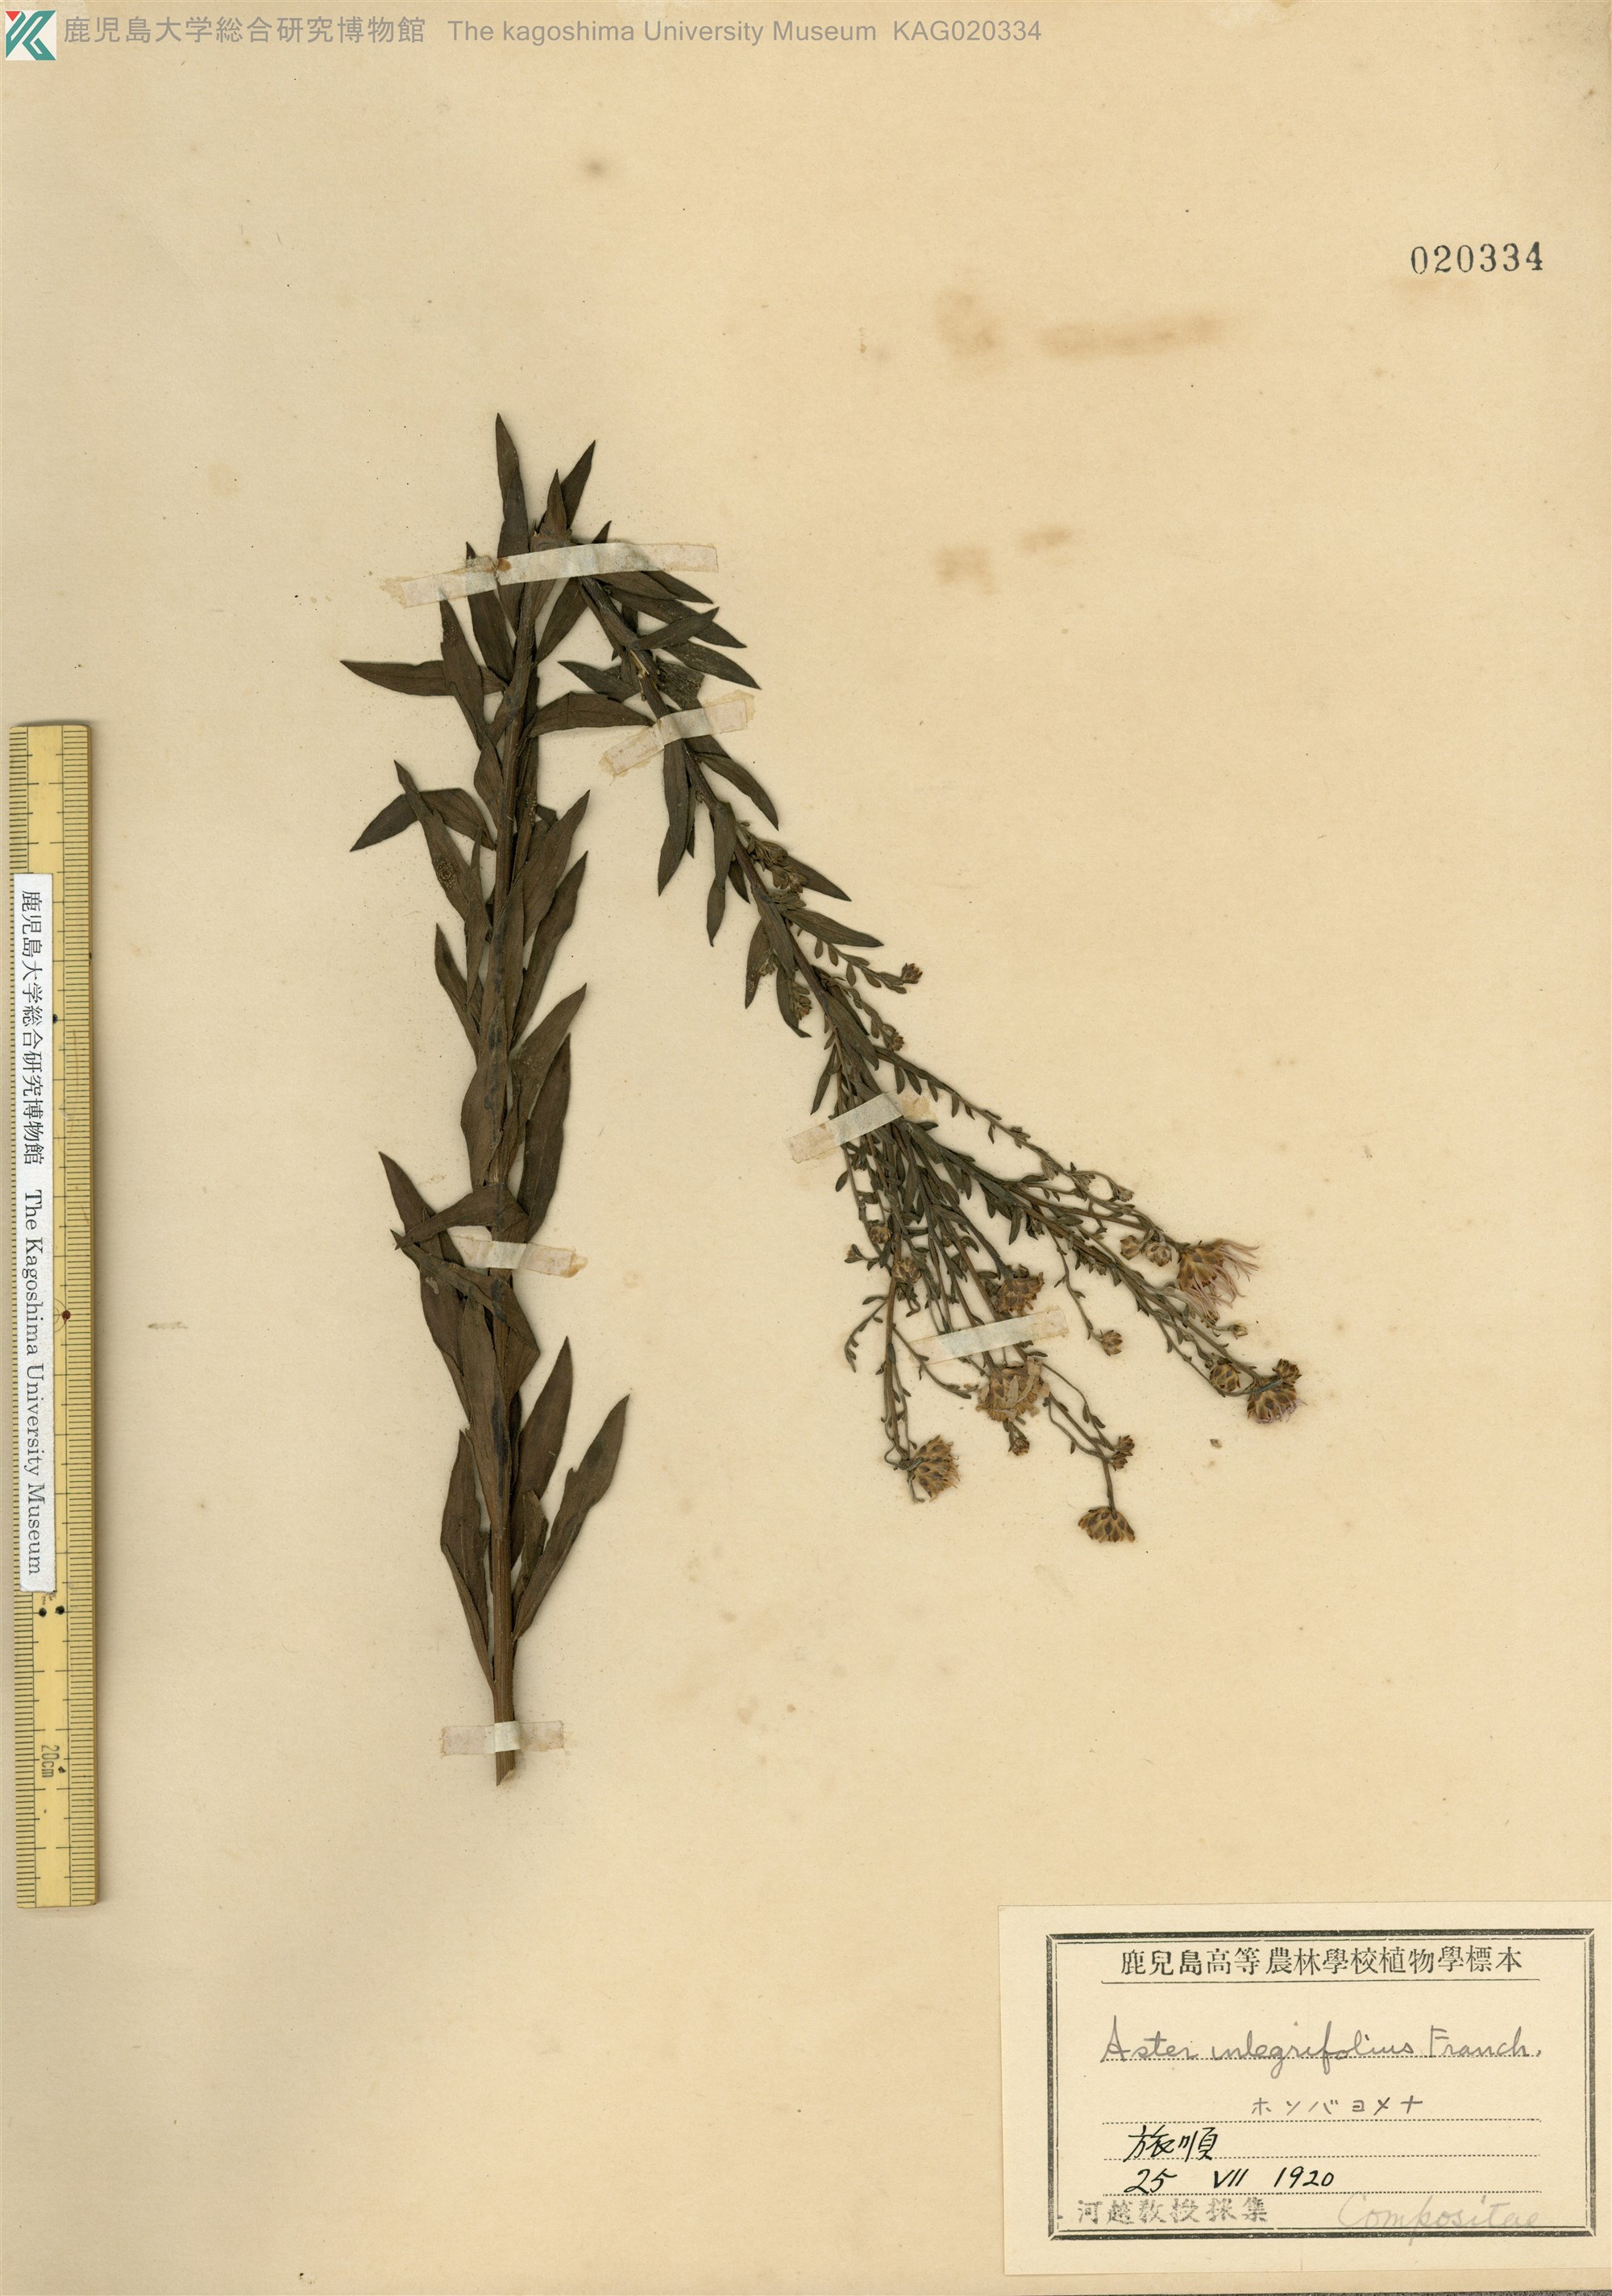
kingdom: Plantae
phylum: Tracheophyta
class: Magnoliopsida
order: Asterales
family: Asteraceae
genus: Kalimeris
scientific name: Kalimeris integrifolia
